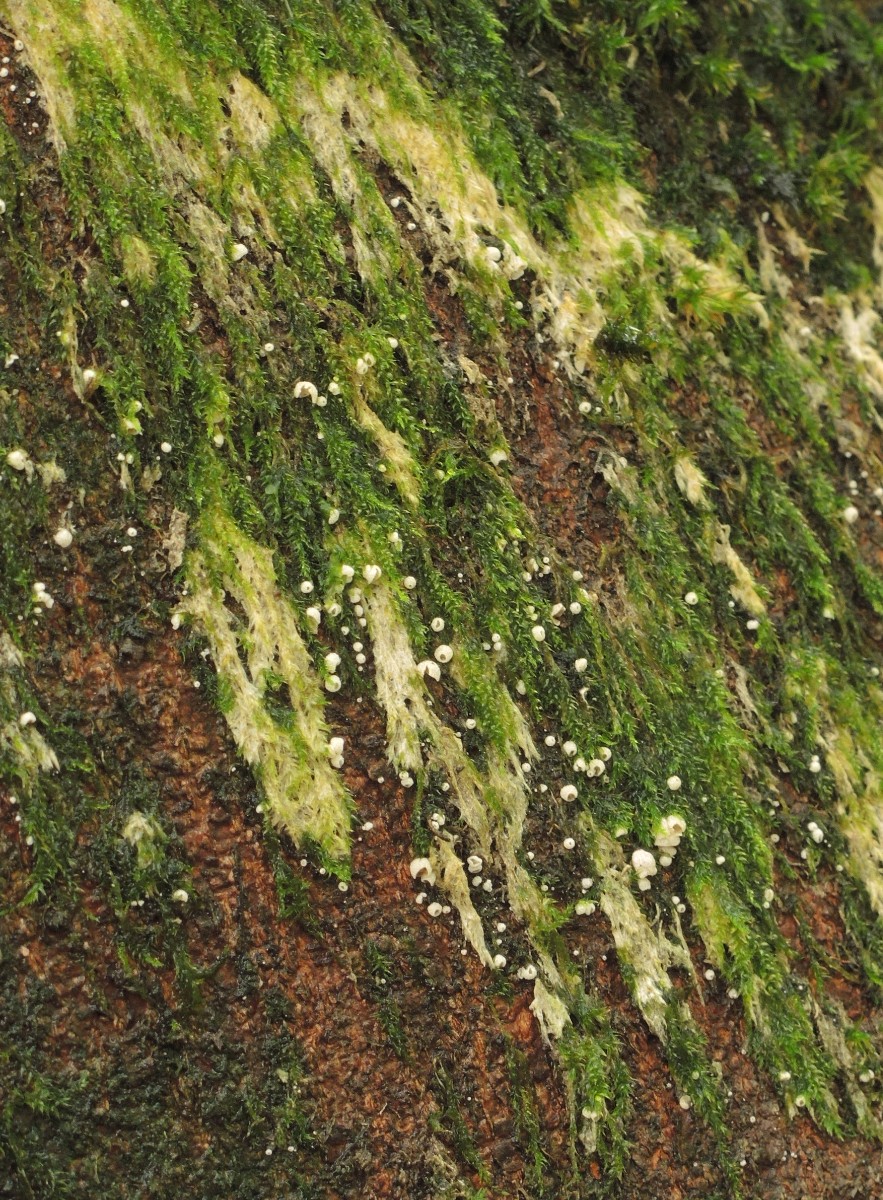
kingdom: Fungi
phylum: Basidiomycota
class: Agaricomycetes
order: Agaricales
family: Chromocyphellaceae
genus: Chromocyphella
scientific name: Chromocyphella muscicola
